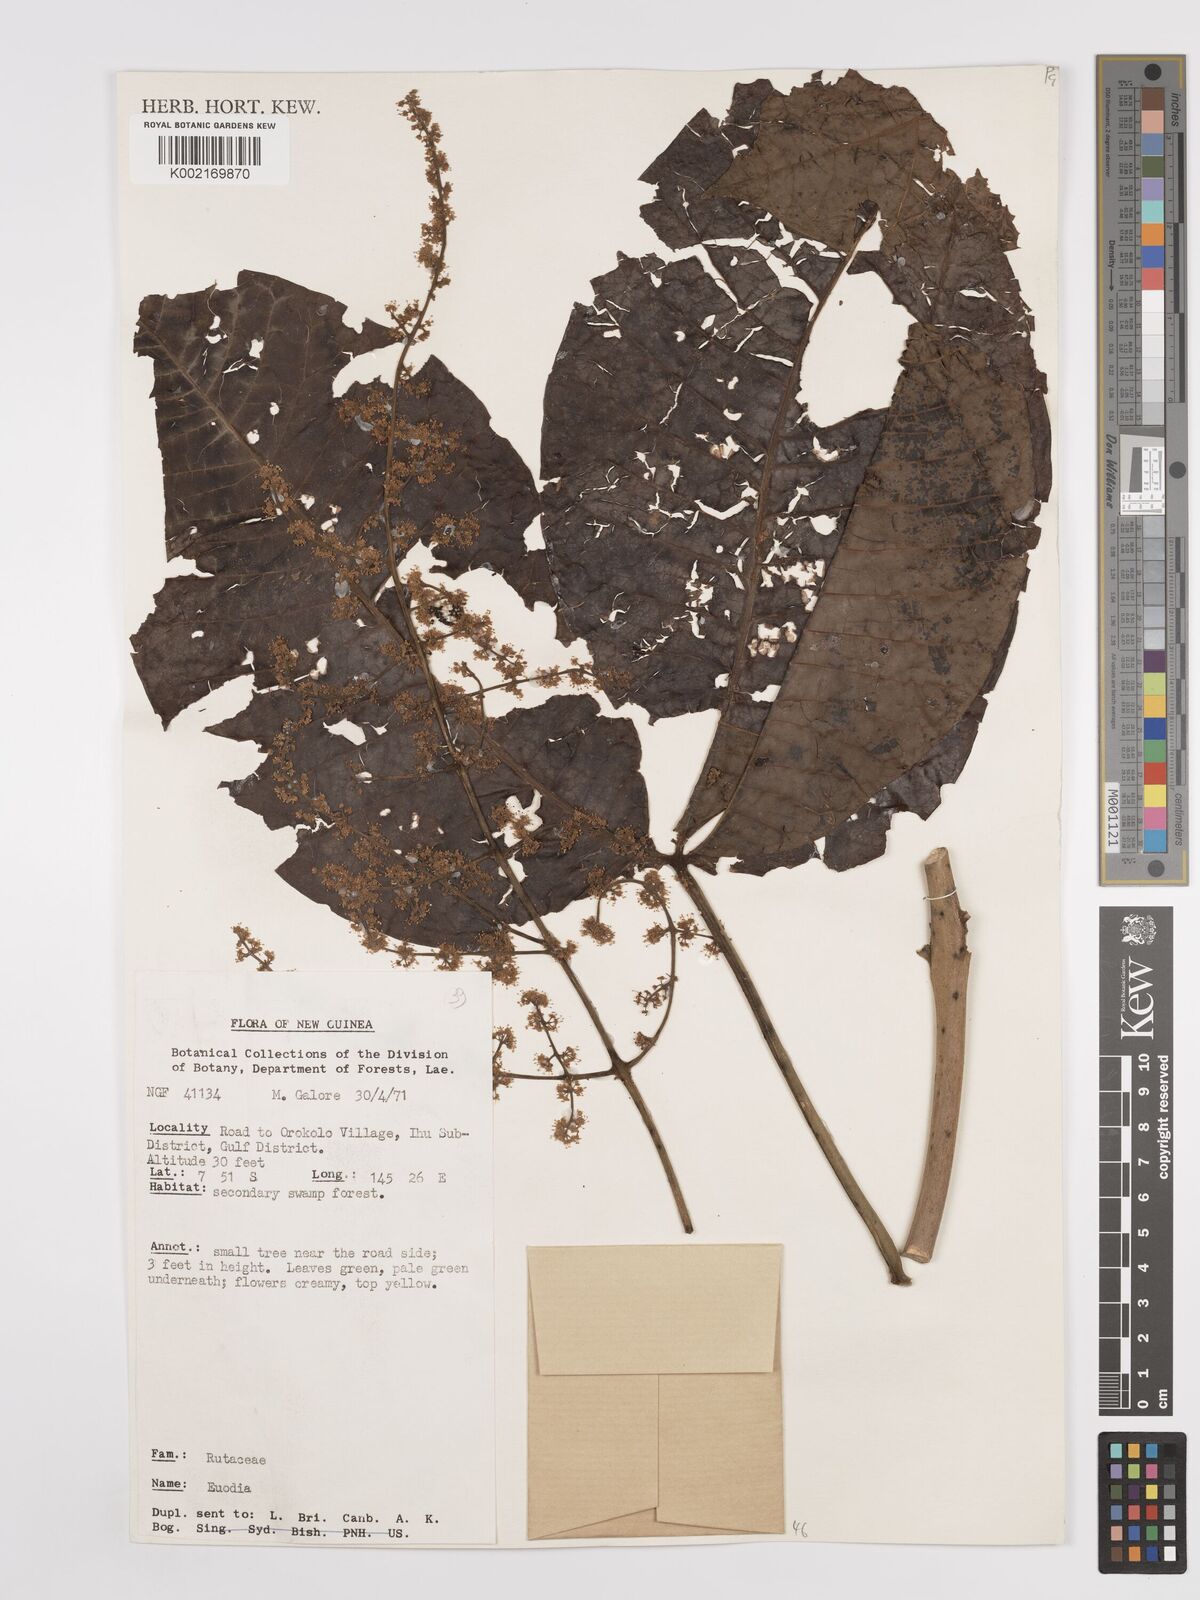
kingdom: Plantae
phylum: Tracheophyta
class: Magnoliopsida
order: Sapindales
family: Rutaceae
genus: Euodia
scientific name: Euodia
